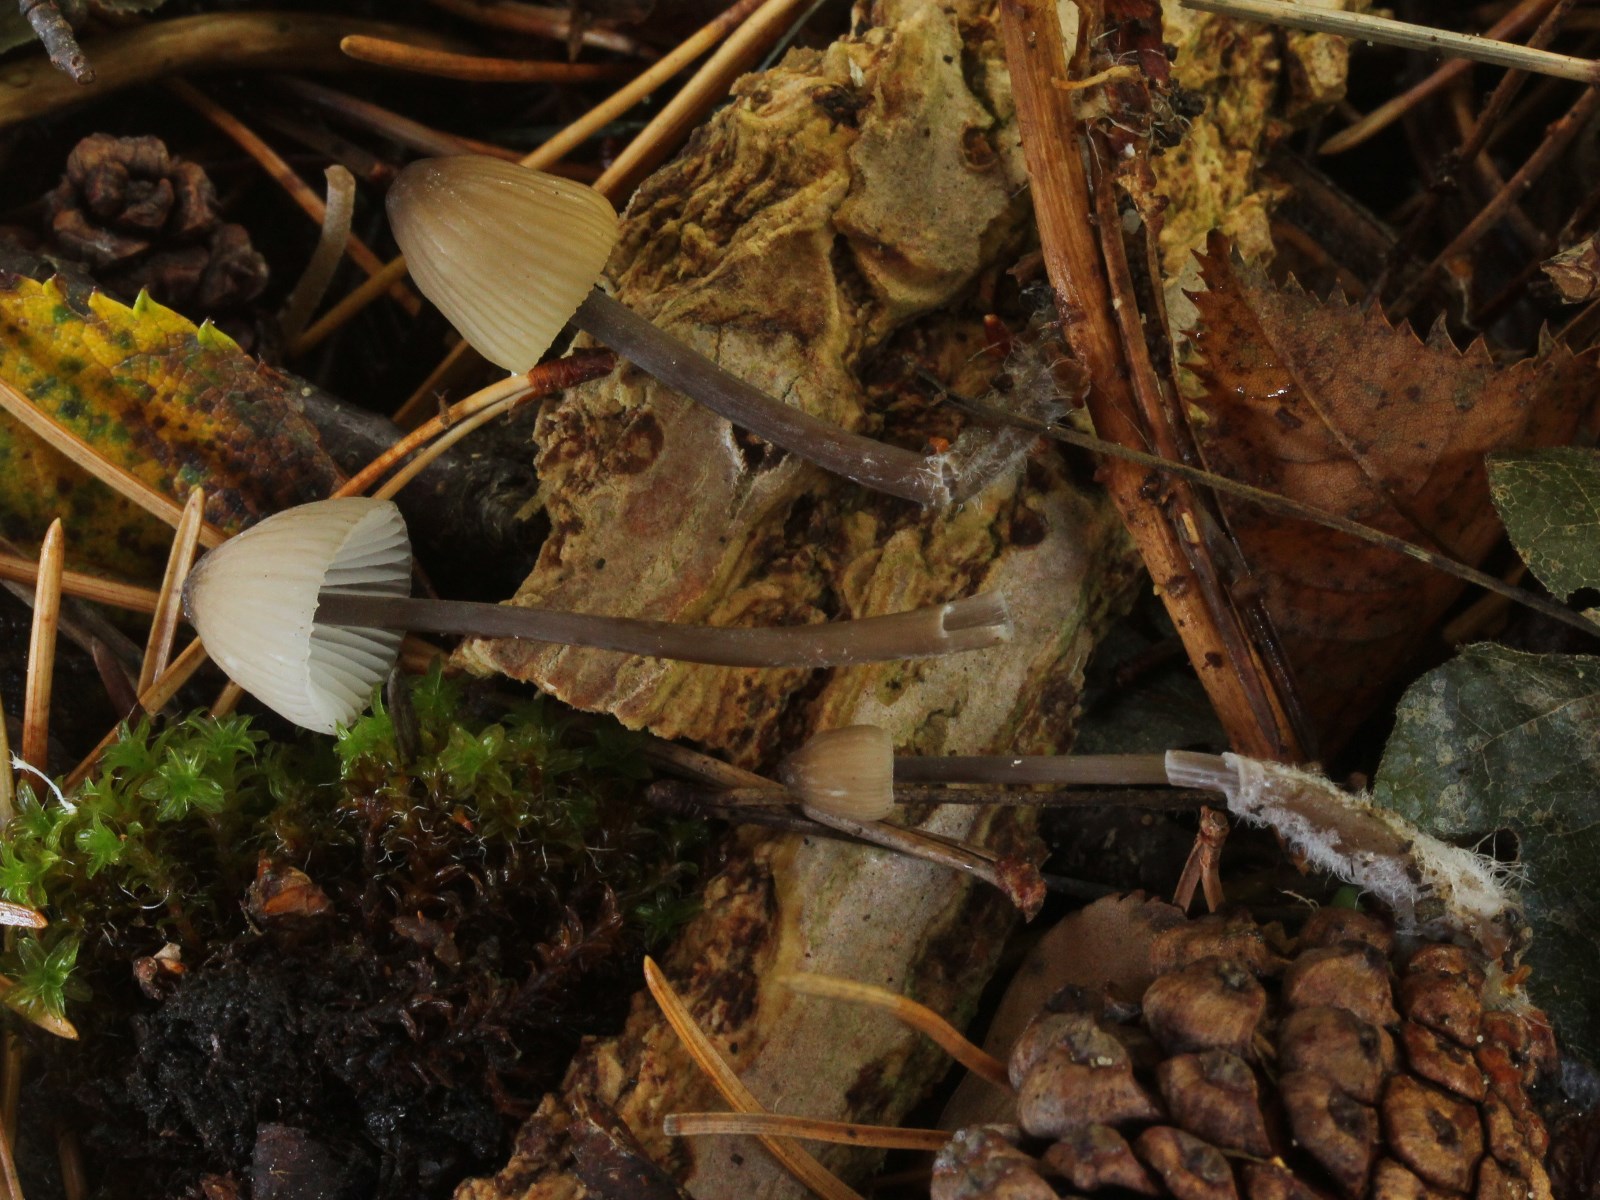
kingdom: Fungi
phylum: Basidiomycota
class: Agaricomycetes
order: Agaricales
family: Mycenaceae
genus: Mycena
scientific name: Mycena galopus
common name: hvidmælket huesvamp
